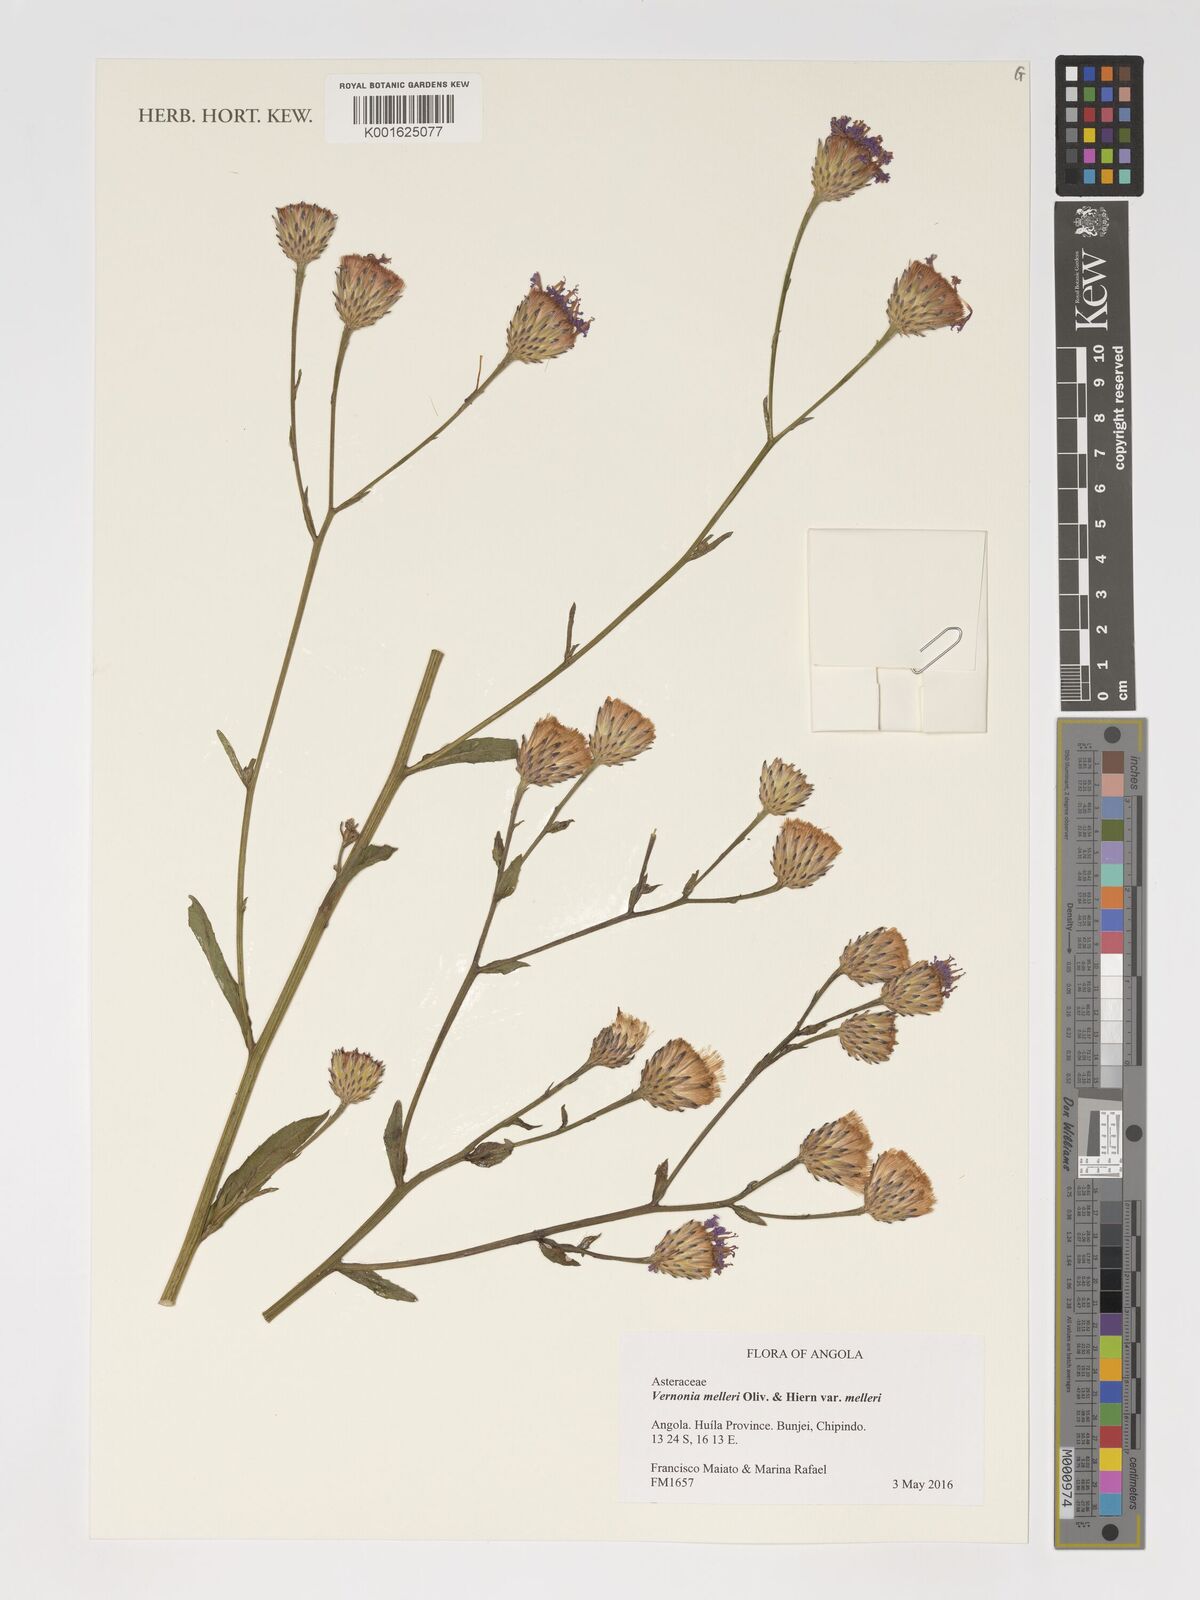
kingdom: Plantae
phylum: Tracheophyta
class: Magnoliopsida
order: Asterales
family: Asteraceae
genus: Linzia
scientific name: Linzia melleri
